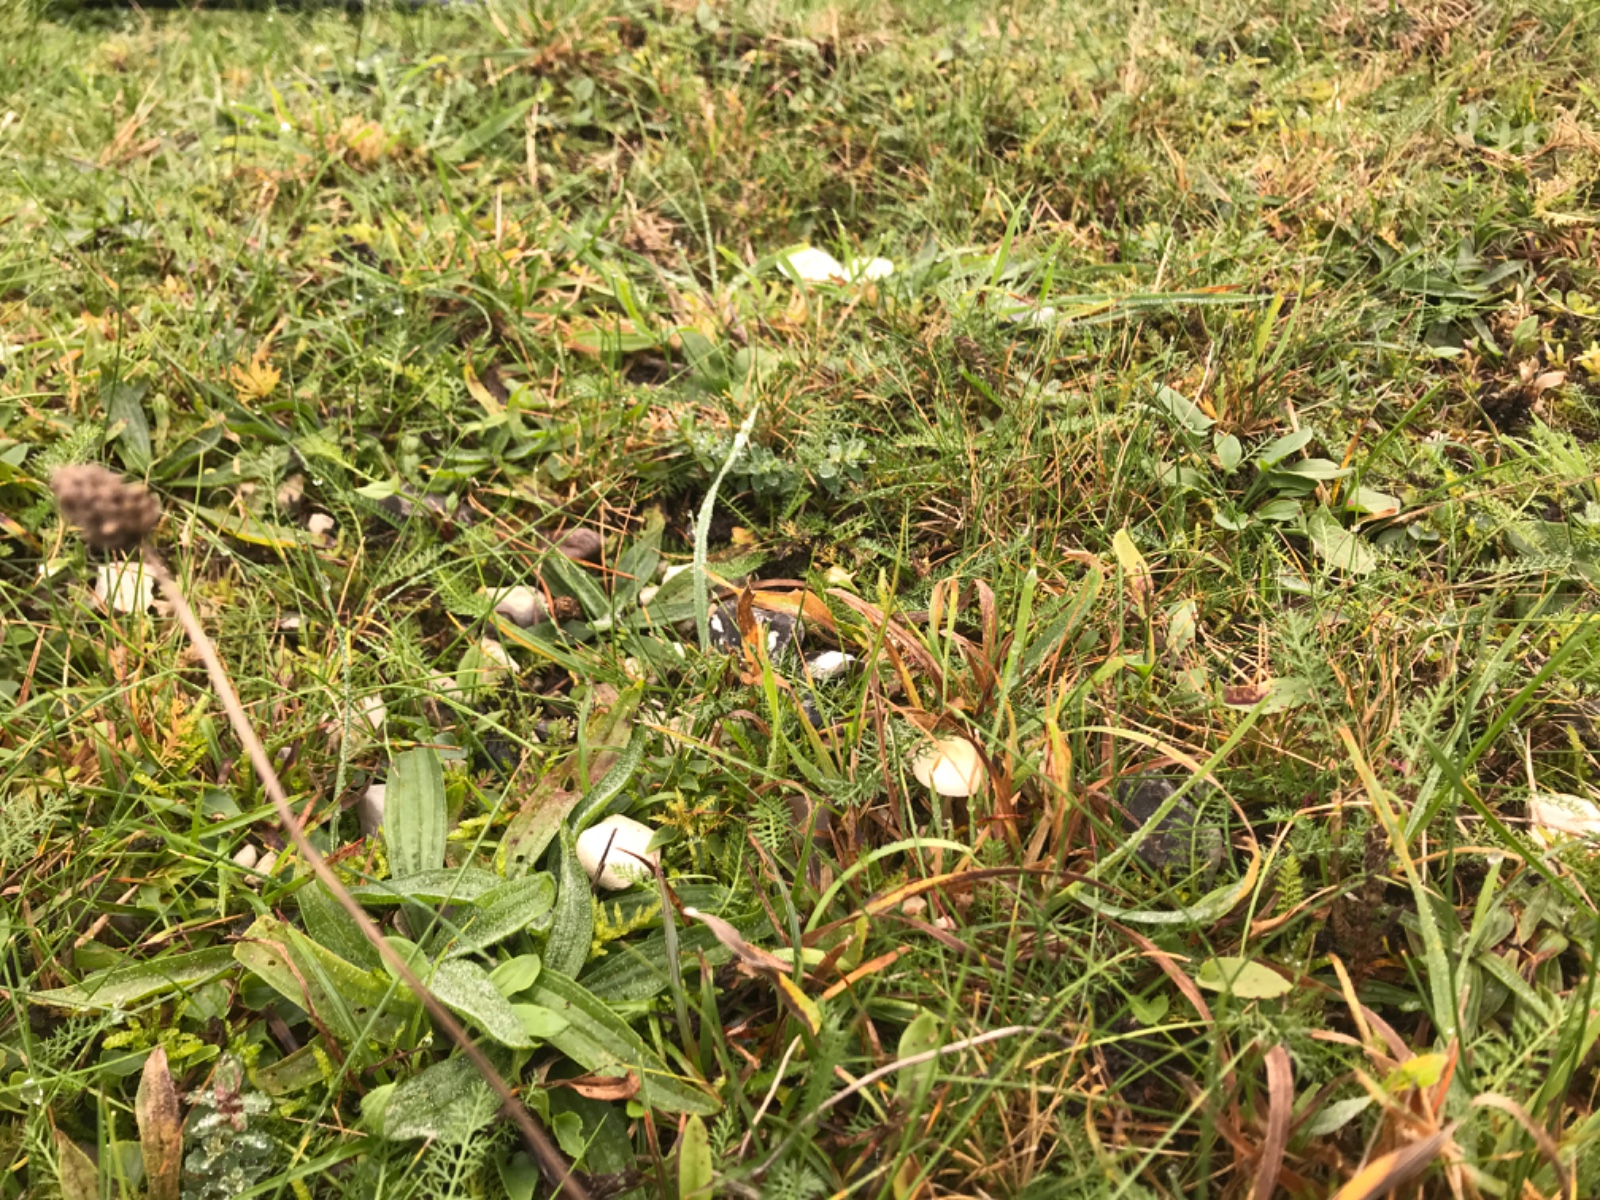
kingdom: Fungi
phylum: Basidiomycota
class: Agaricomycetes
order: Agaricales
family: Hygrophoraceae
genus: Cuphophyllus
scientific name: Cuphophyllus virgineus
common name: snehvid vokshat
